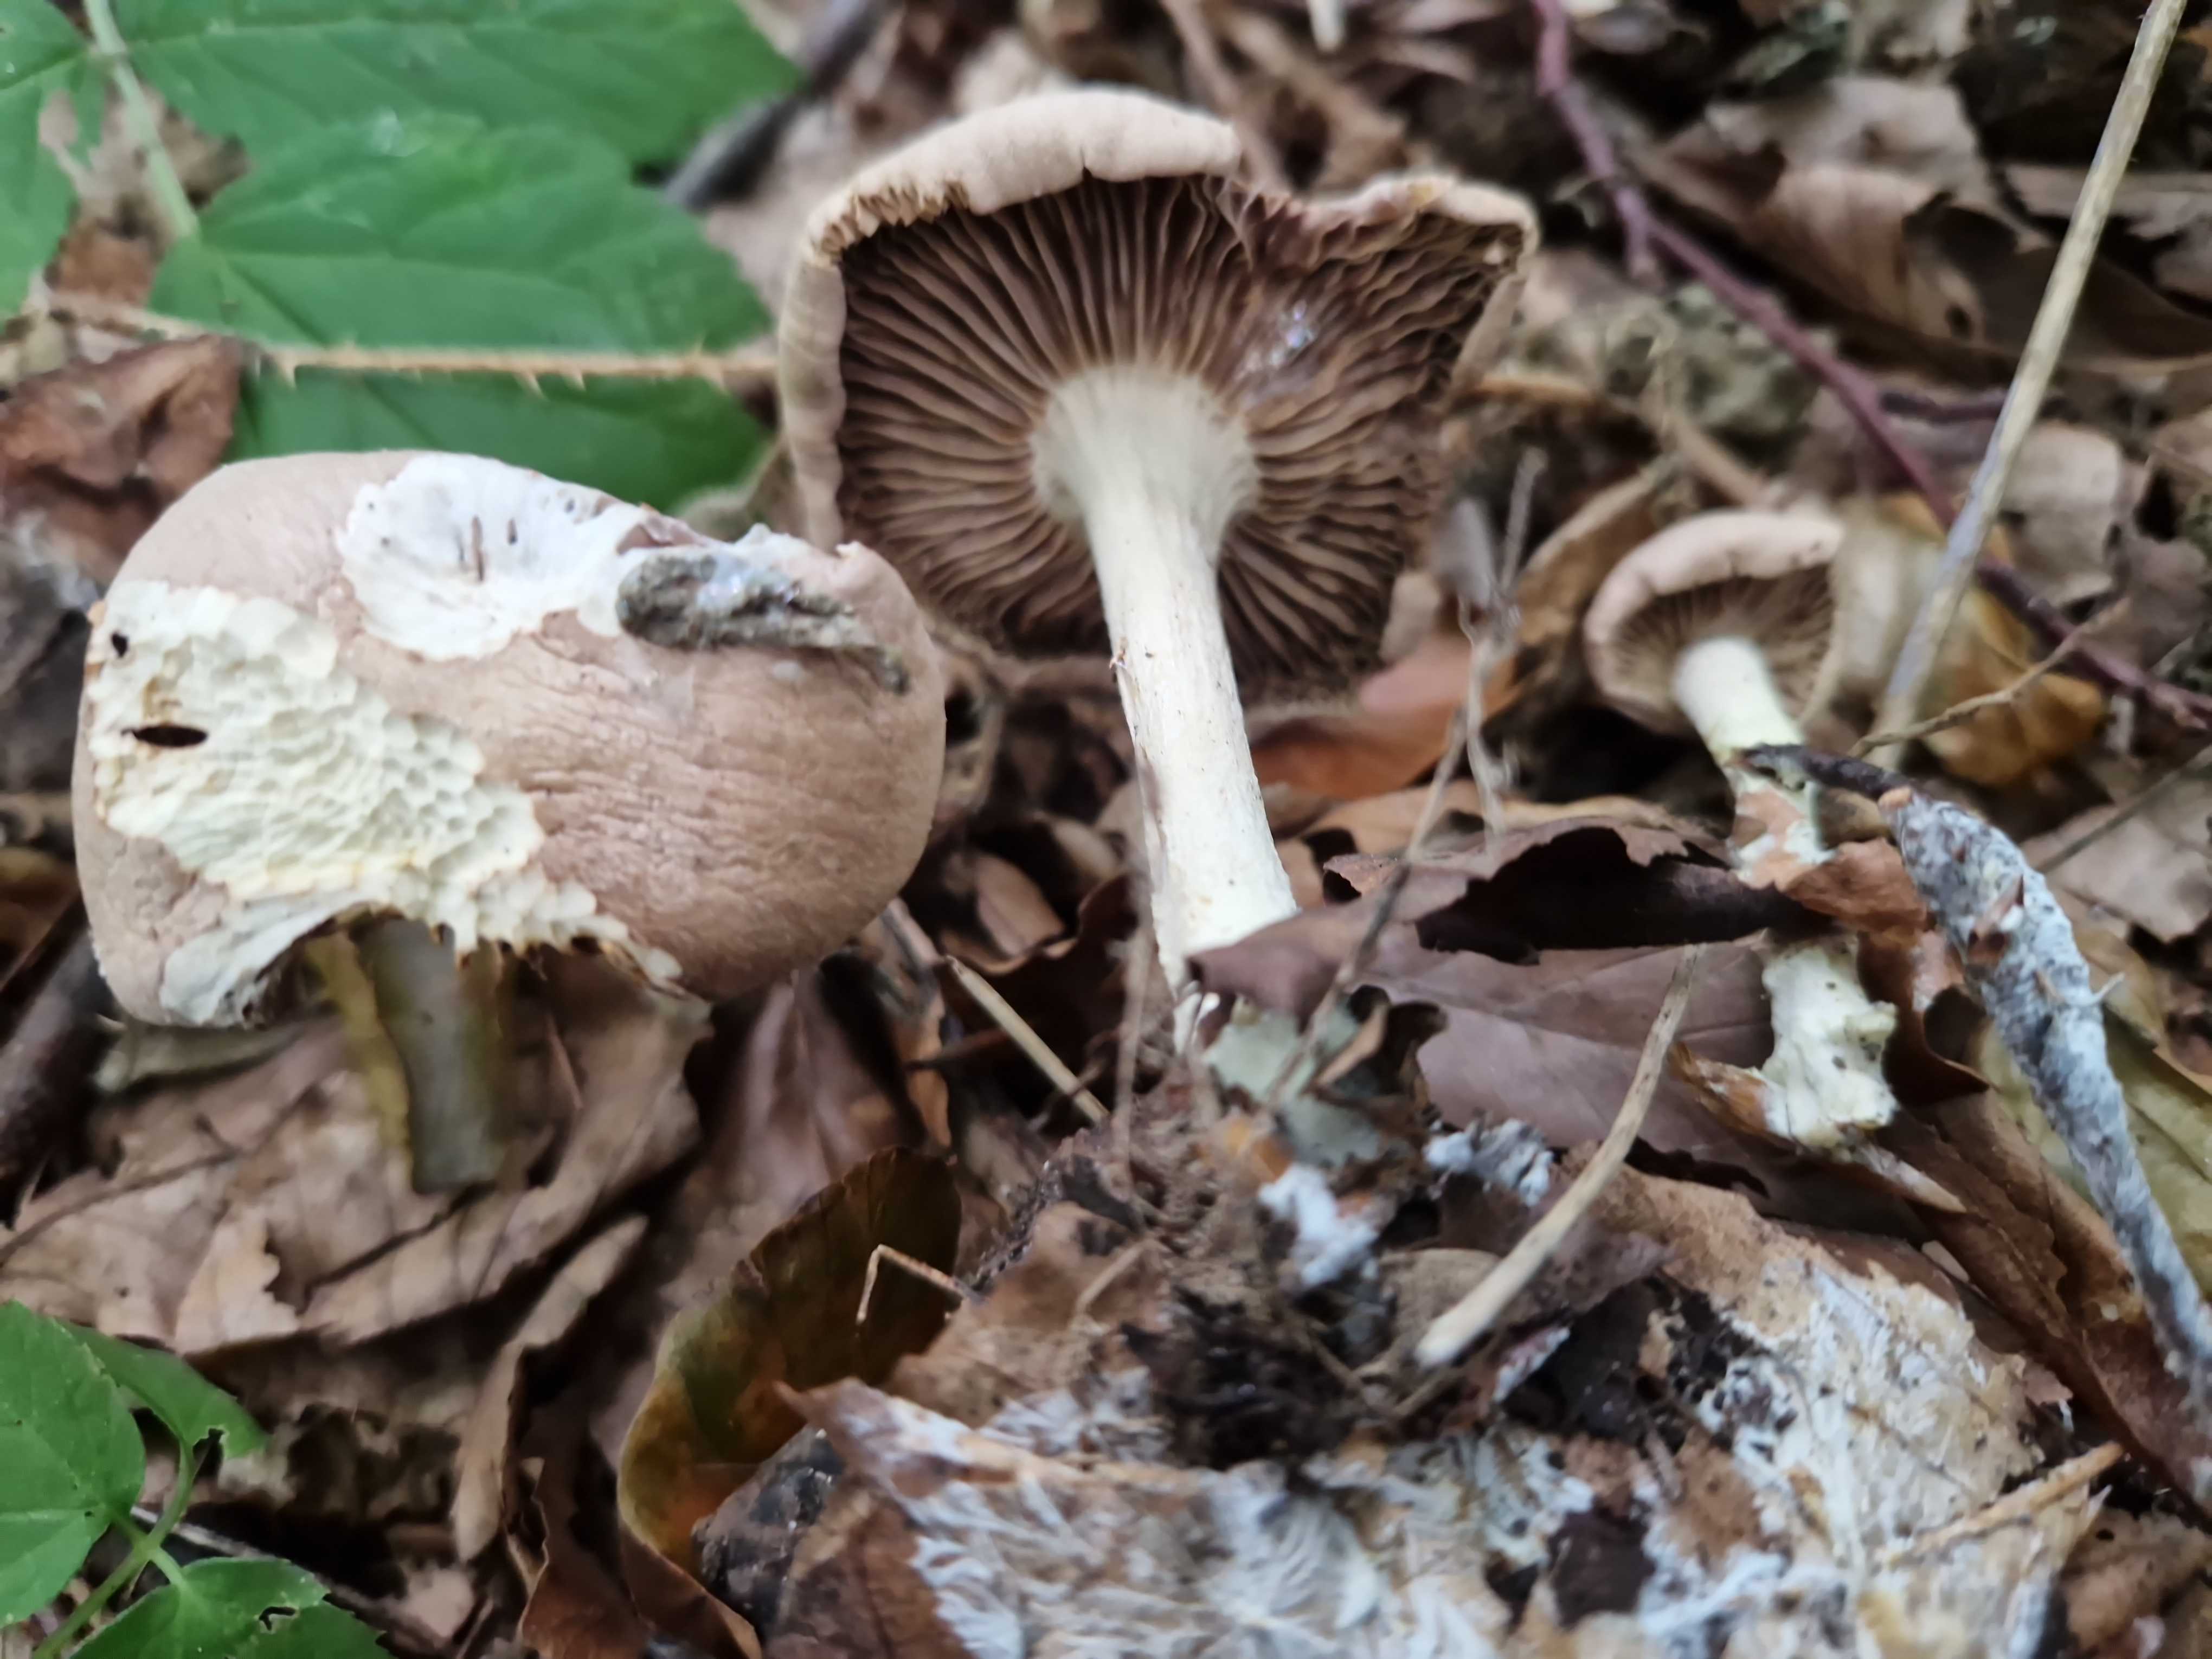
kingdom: Fungi
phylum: Basidiomycota
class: Agaricomycetes
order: Agaricales
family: Omphalotaceae
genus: Collybiopsis
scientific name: Collybiopsis peronata
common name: bestøvlet fladhat
